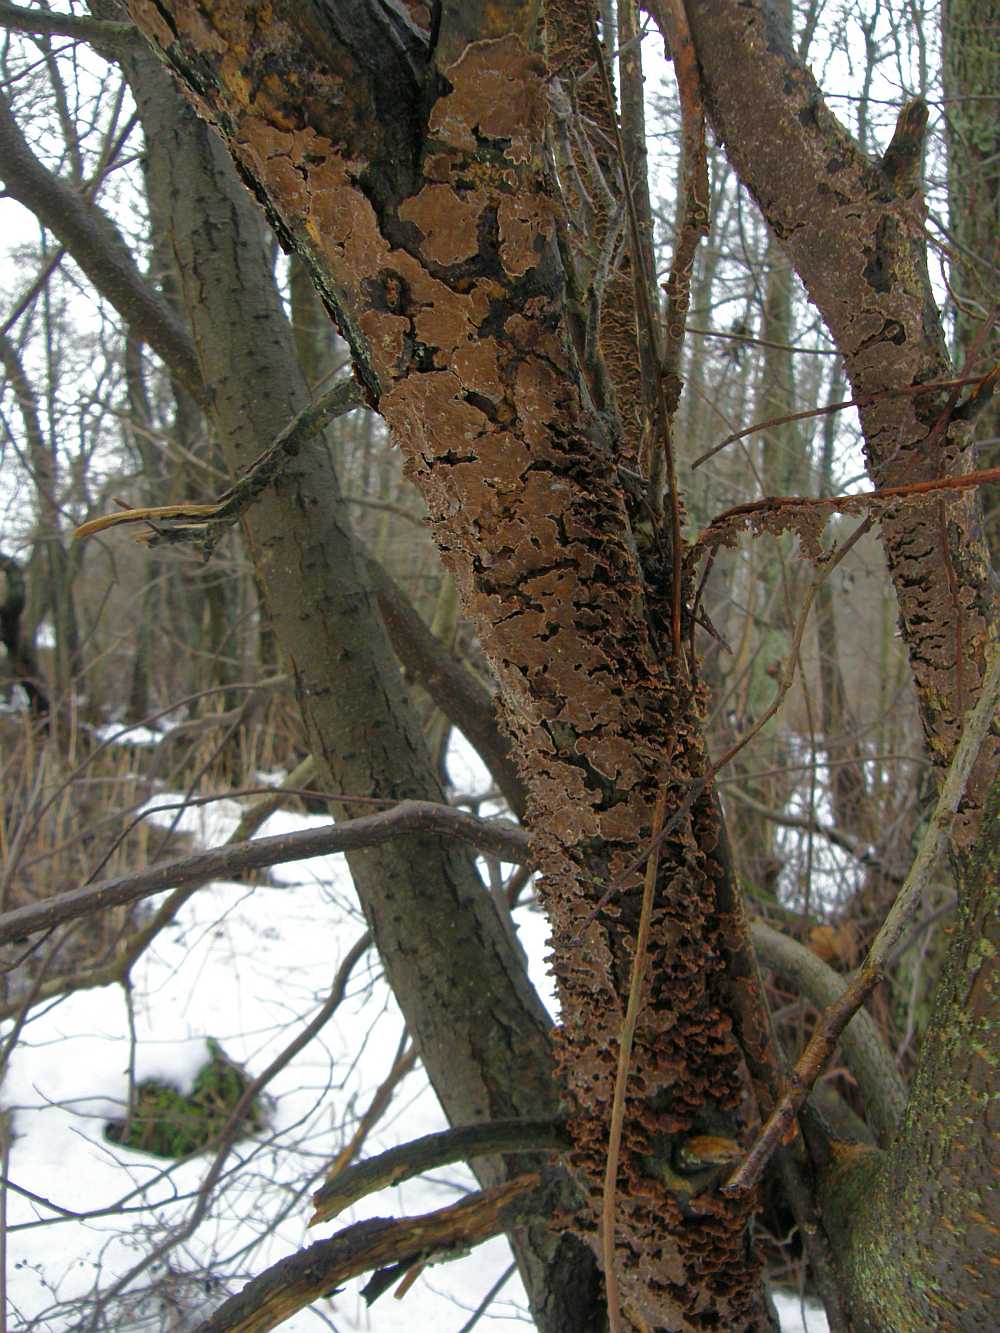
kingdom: Fungi
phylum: Basidiomycota
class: Agaricomycetes
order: Hymenochaetales
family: Hymenochaetaceae
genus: Hydnoporia
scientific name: Hydnoporia tabacina
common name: tobaksbrun ruslædersvamp
